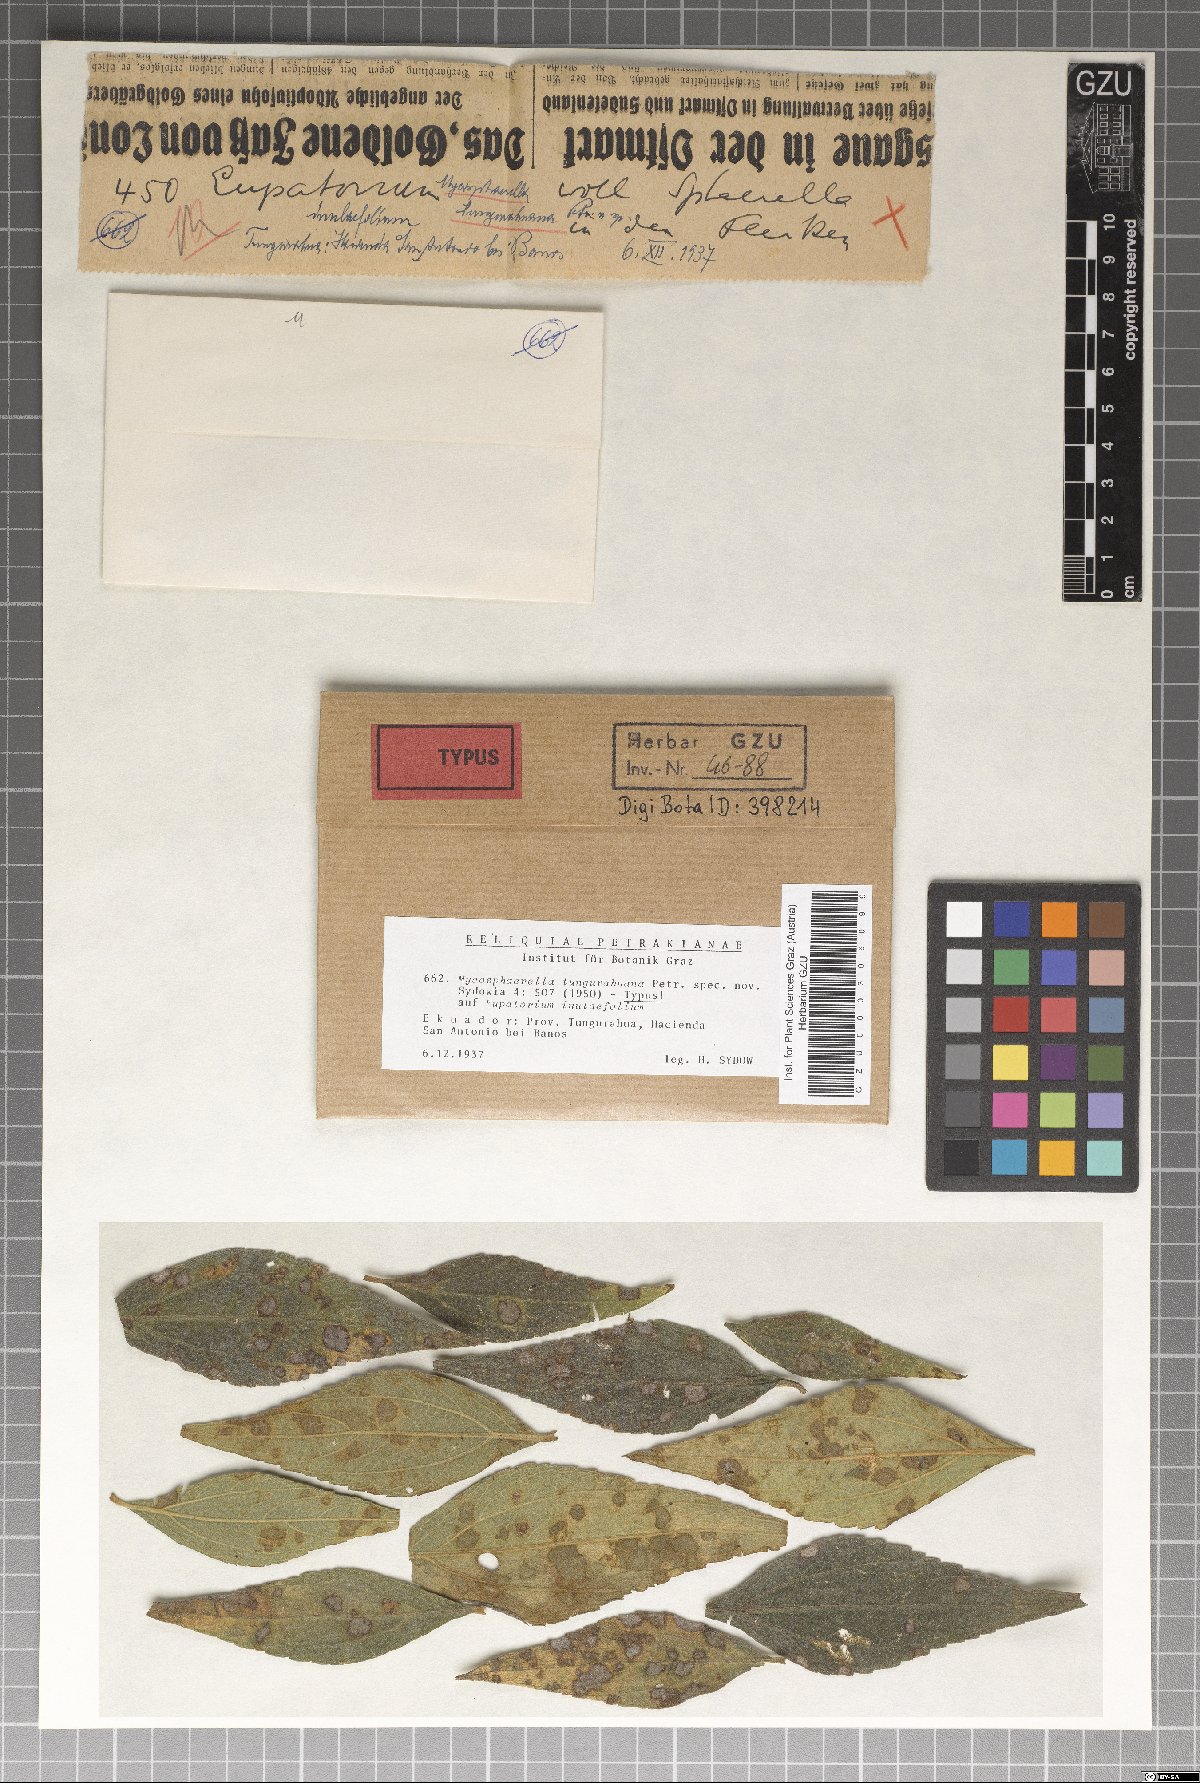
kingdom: Fungi
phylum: Ascomycota
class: Dothideomycetes
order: Mycosphaerellales
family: Mycosphaerellaceae
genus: Mycosphaerella
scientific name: Mycosphaerella tungurahuana
